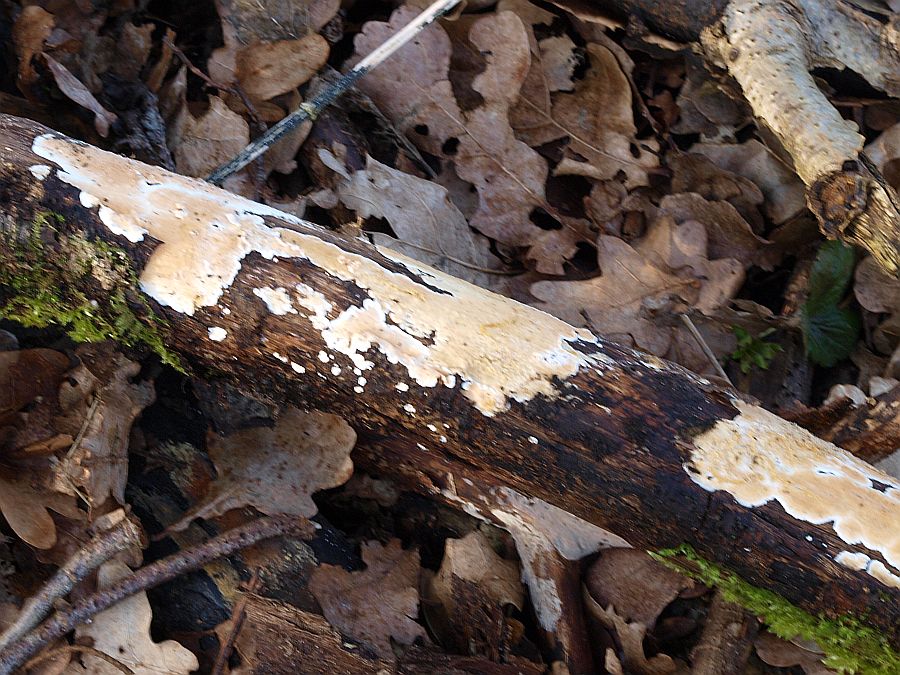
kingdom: Fungi
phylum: Basidiomycota
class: Agaricomycetes
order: Polyporales
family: Steccherinaceae
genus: Steccherinum
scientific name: Steccherinum ochraceum
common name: almindelig skønpig
